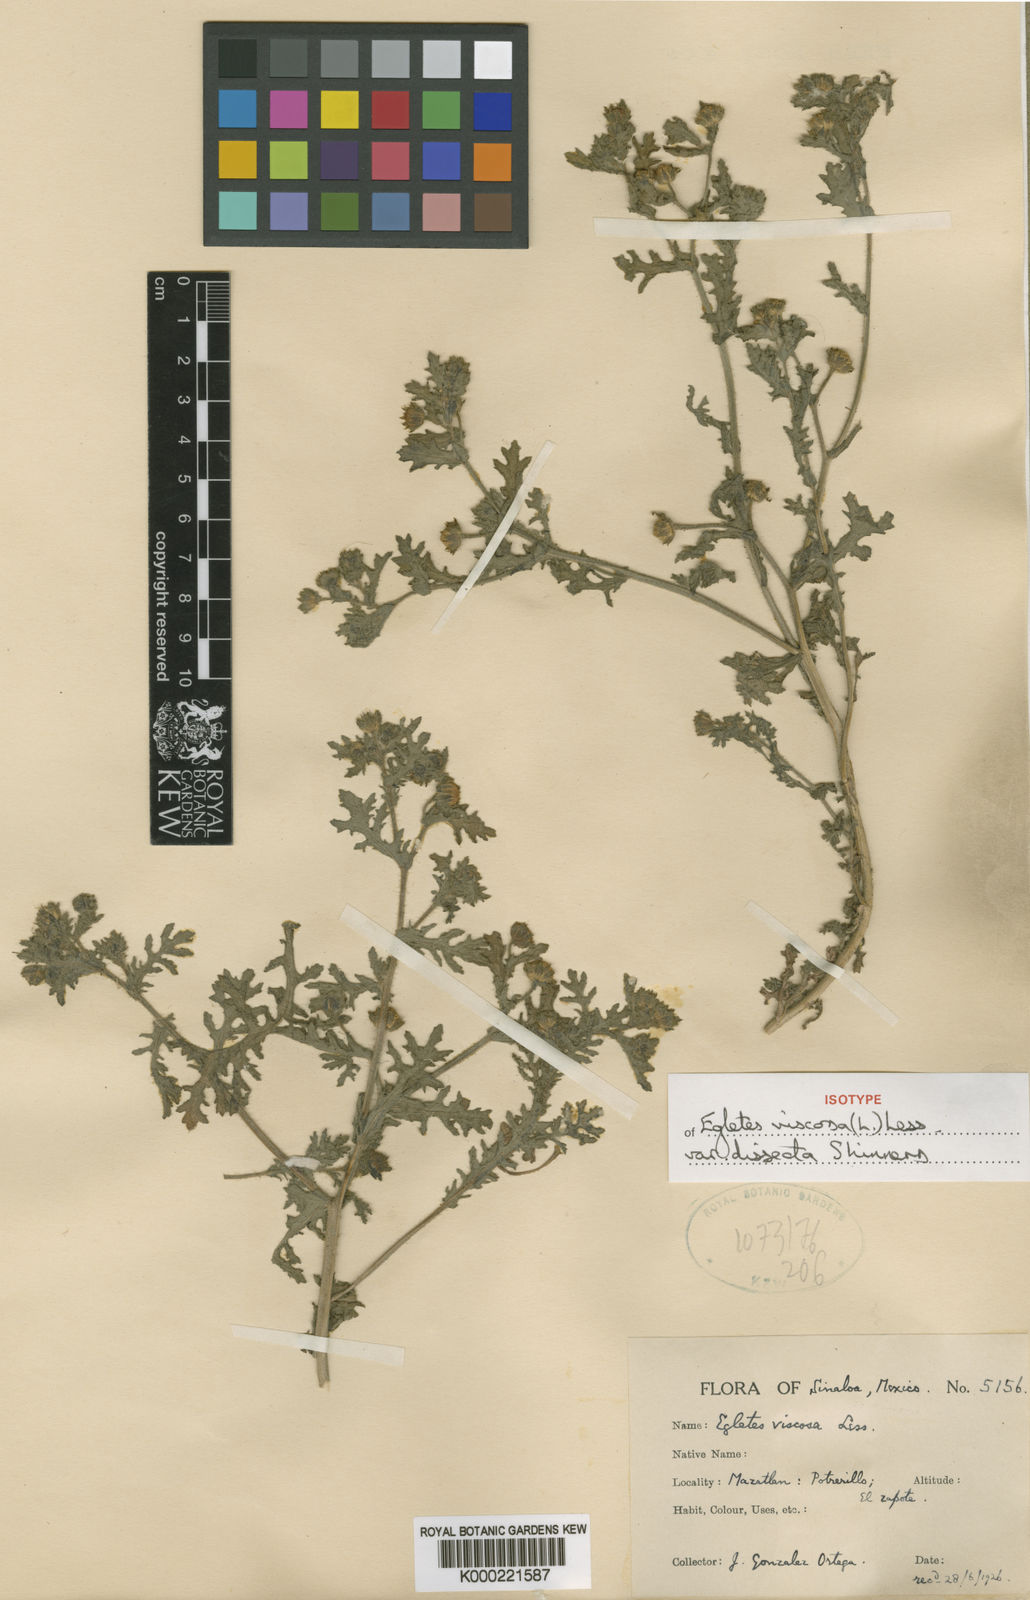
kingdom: Plantae
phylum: Tracheophyta
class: Magnoliopsida
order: Asterales
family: Asteraceae
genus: Egletes
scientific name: Egletes viscosa
